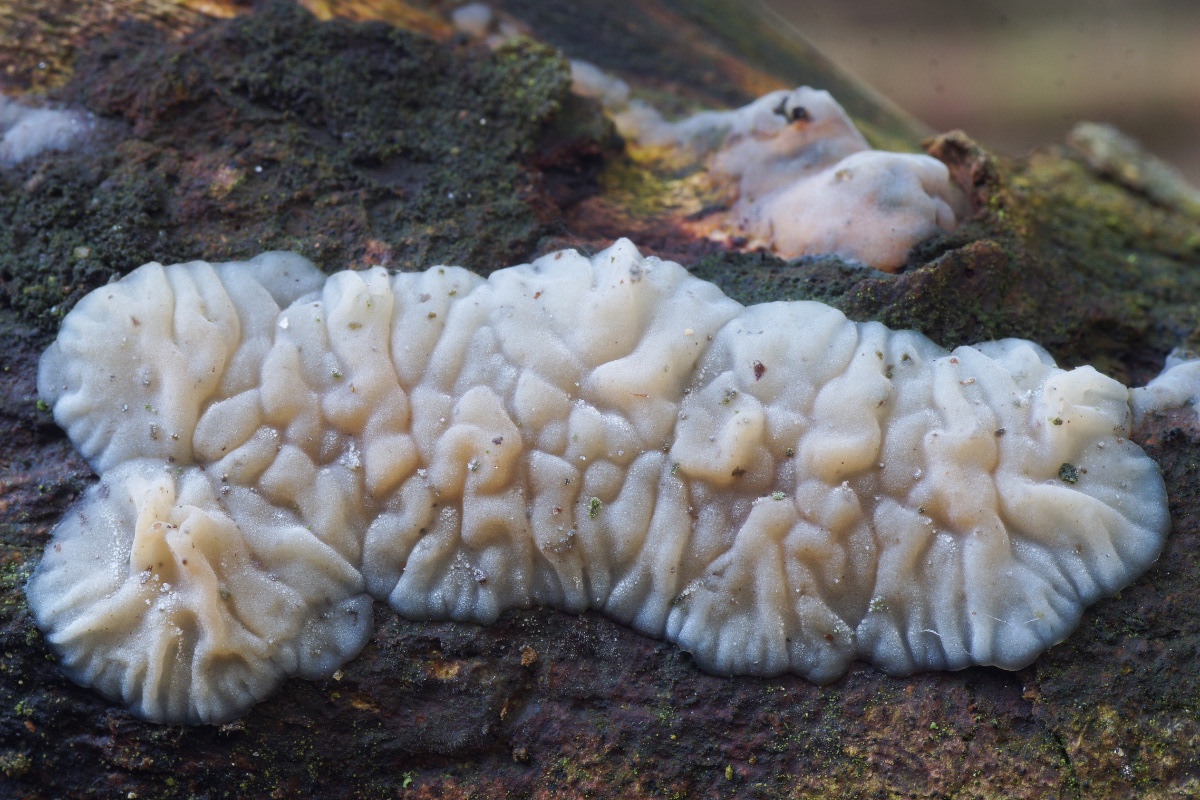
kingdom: Fungi
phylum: Basidiomycota
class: Agaricomycetes
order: Auriculariales
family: Auriculariaceae
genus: Exidia
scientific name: Exidia thuretiana
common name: hvidlig bævretop
